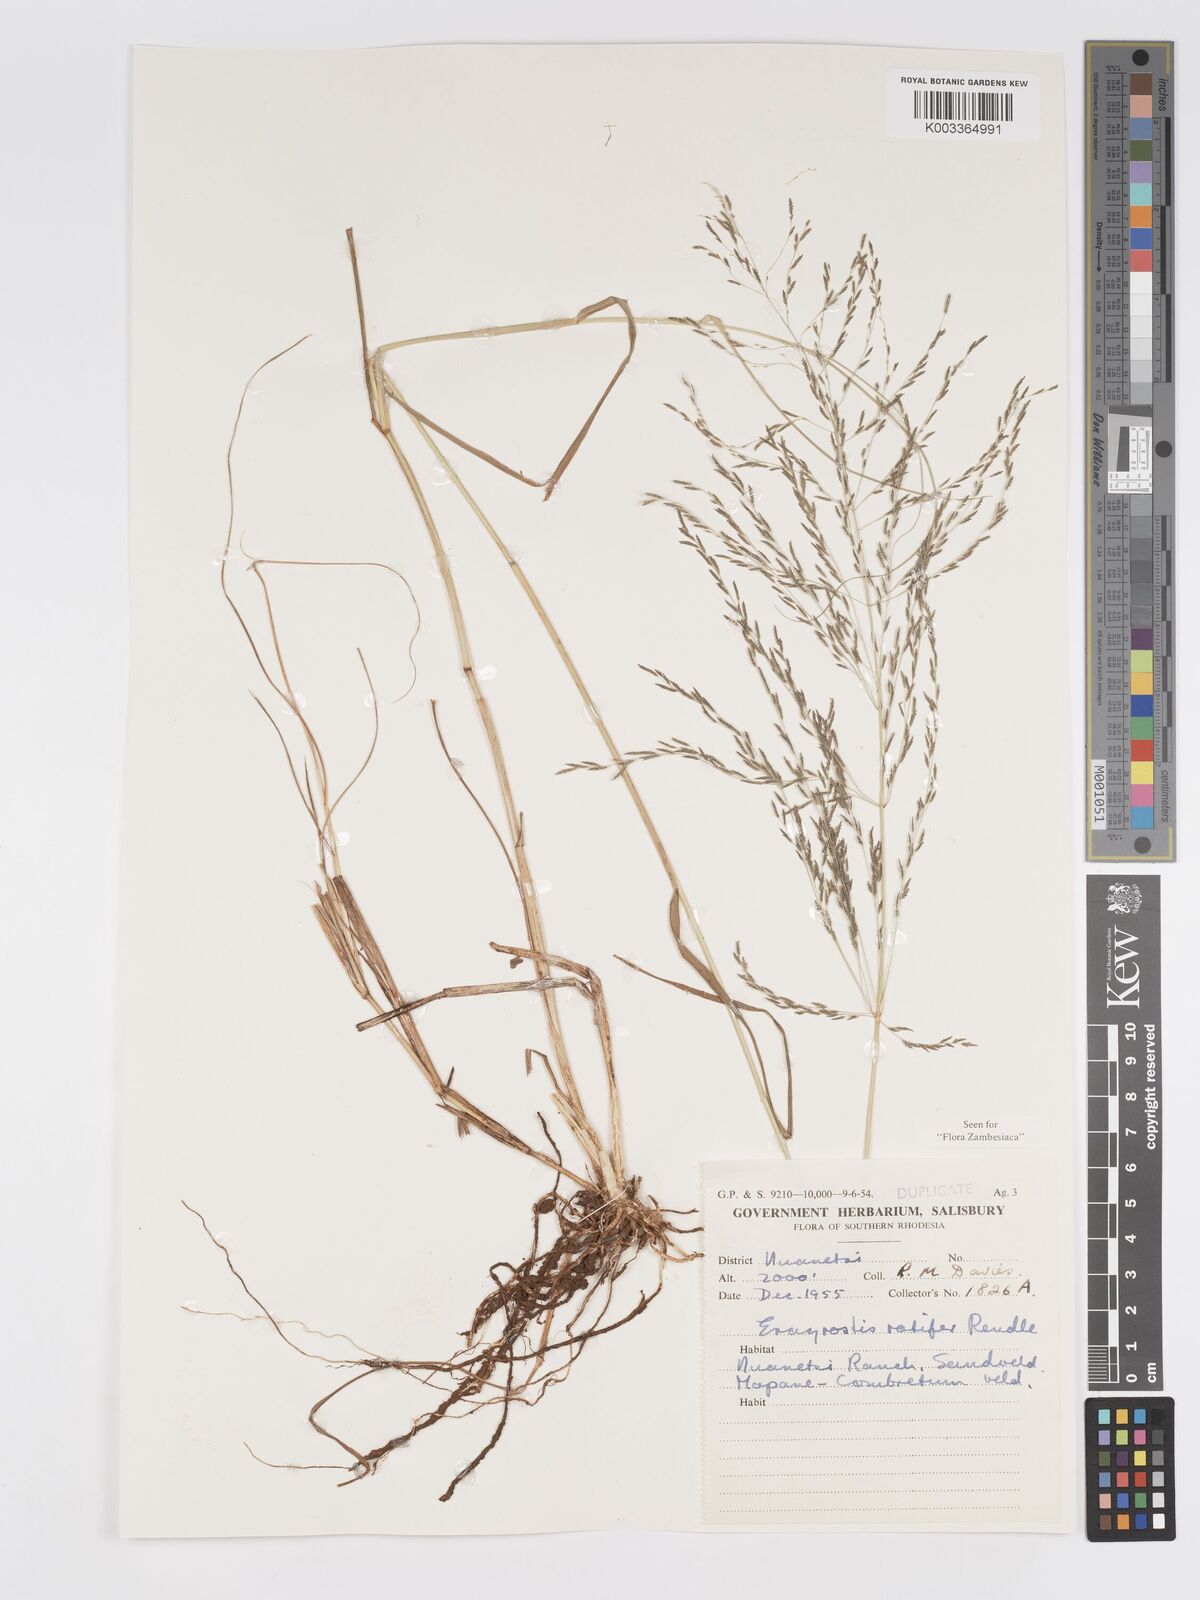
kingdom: Plantae
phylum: Tracheophyta
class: Liliopsida
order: Poales
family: Poaceae
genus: Eragrostis
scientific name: Eragrostis rotifer
